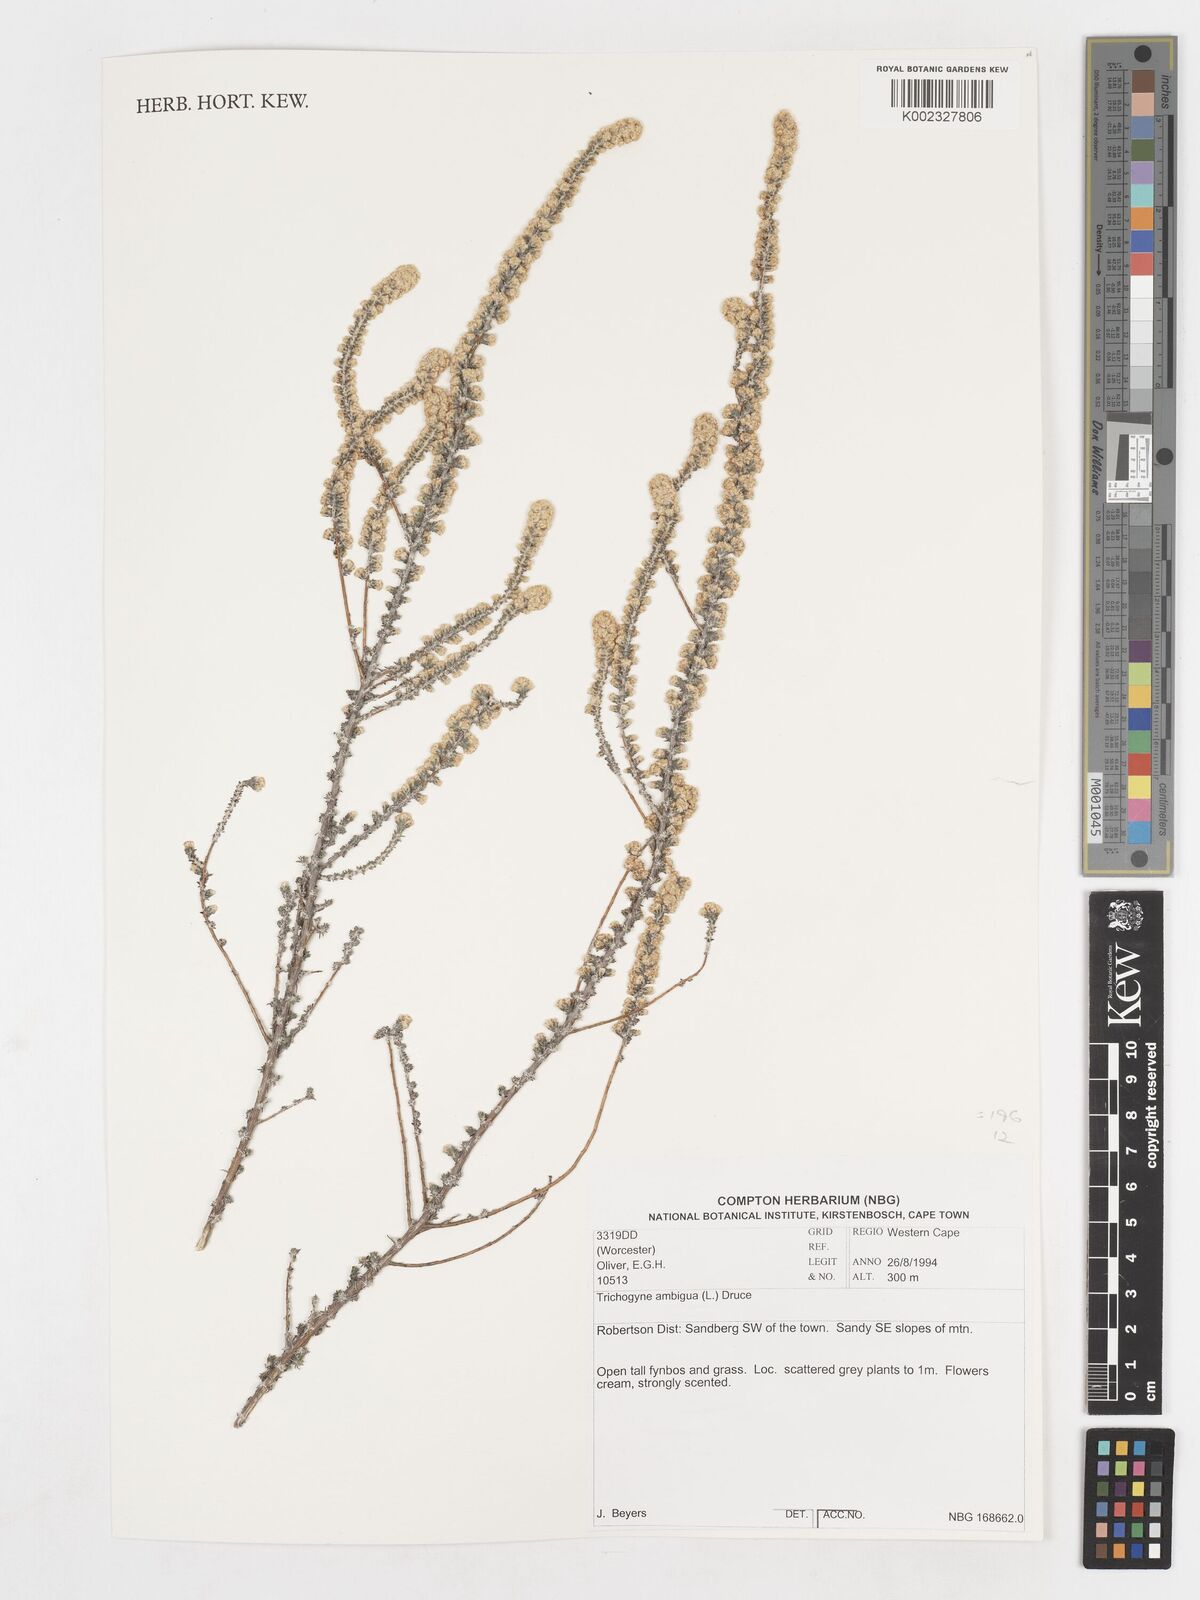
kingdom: Plantae
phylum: Tracheophyta
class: Magnoliopsida
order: Asterales
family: Asteraceae
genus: Ifloga
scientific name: Ifloga ambigua
